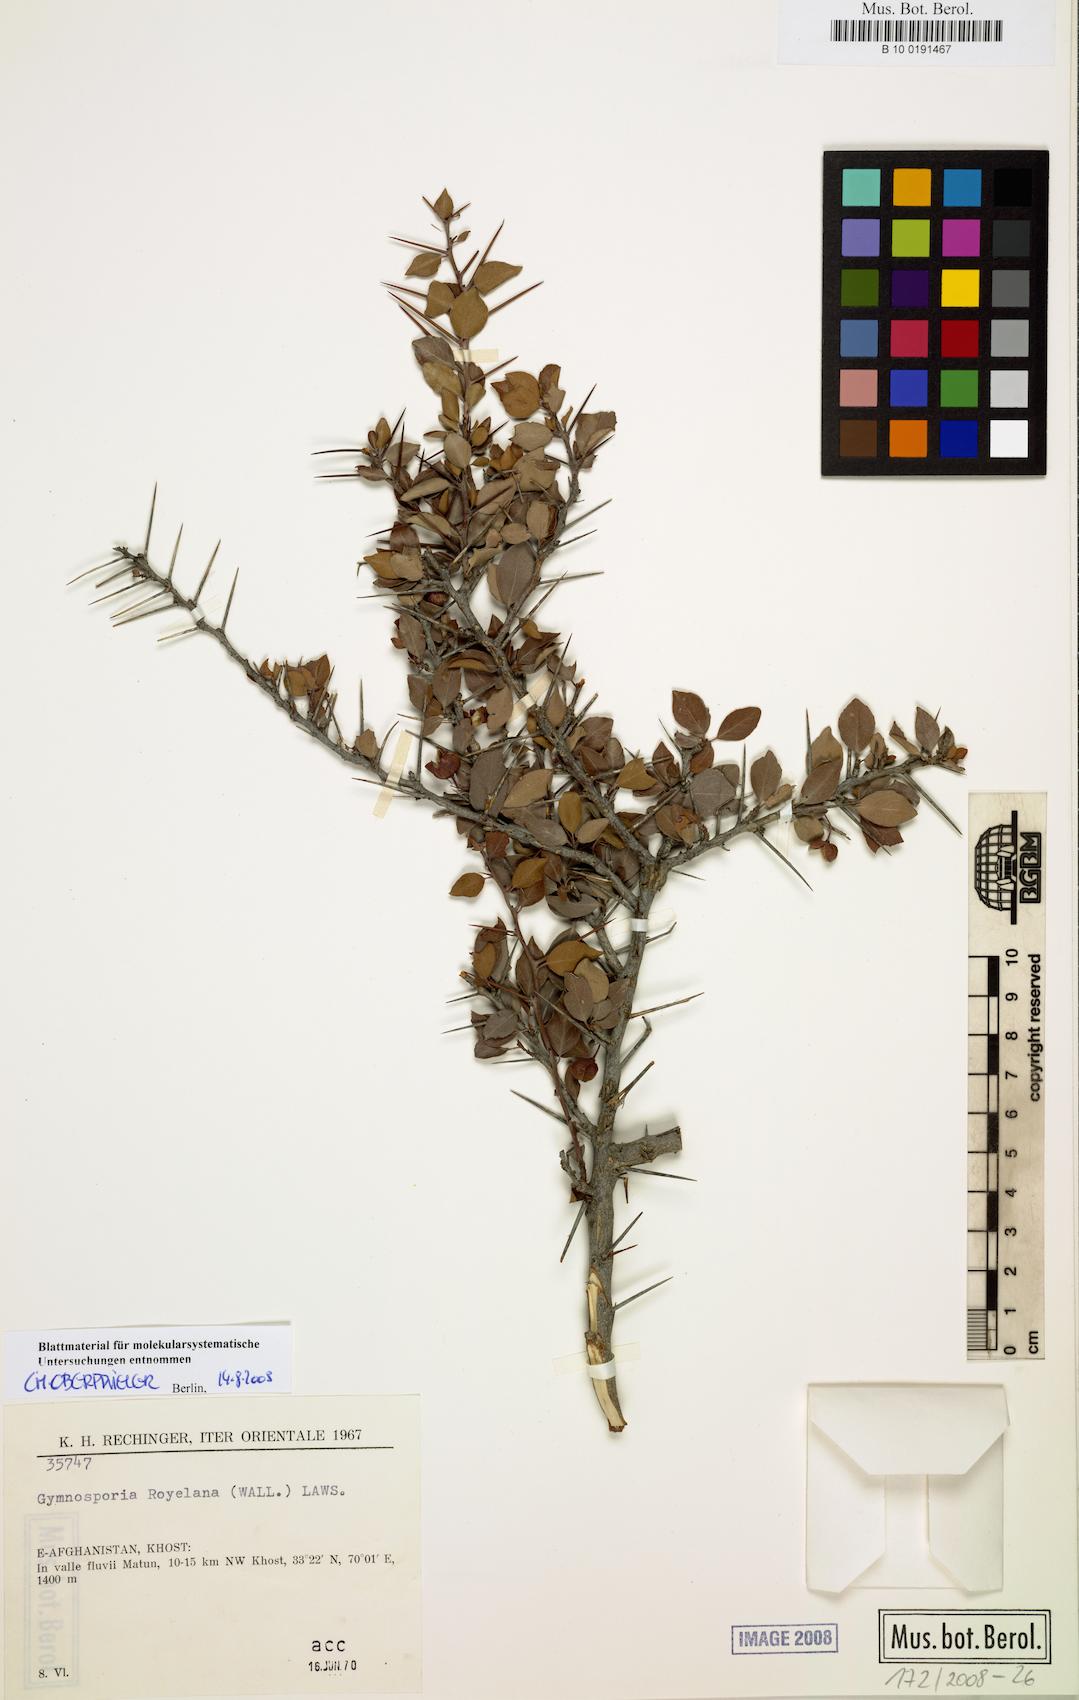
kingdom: Plantae
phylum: Tracheophyta
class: Magnoliopsida
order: Celastrales
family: Celastraceae
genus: Gymnosporia
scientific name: Gymnosporia royleana
